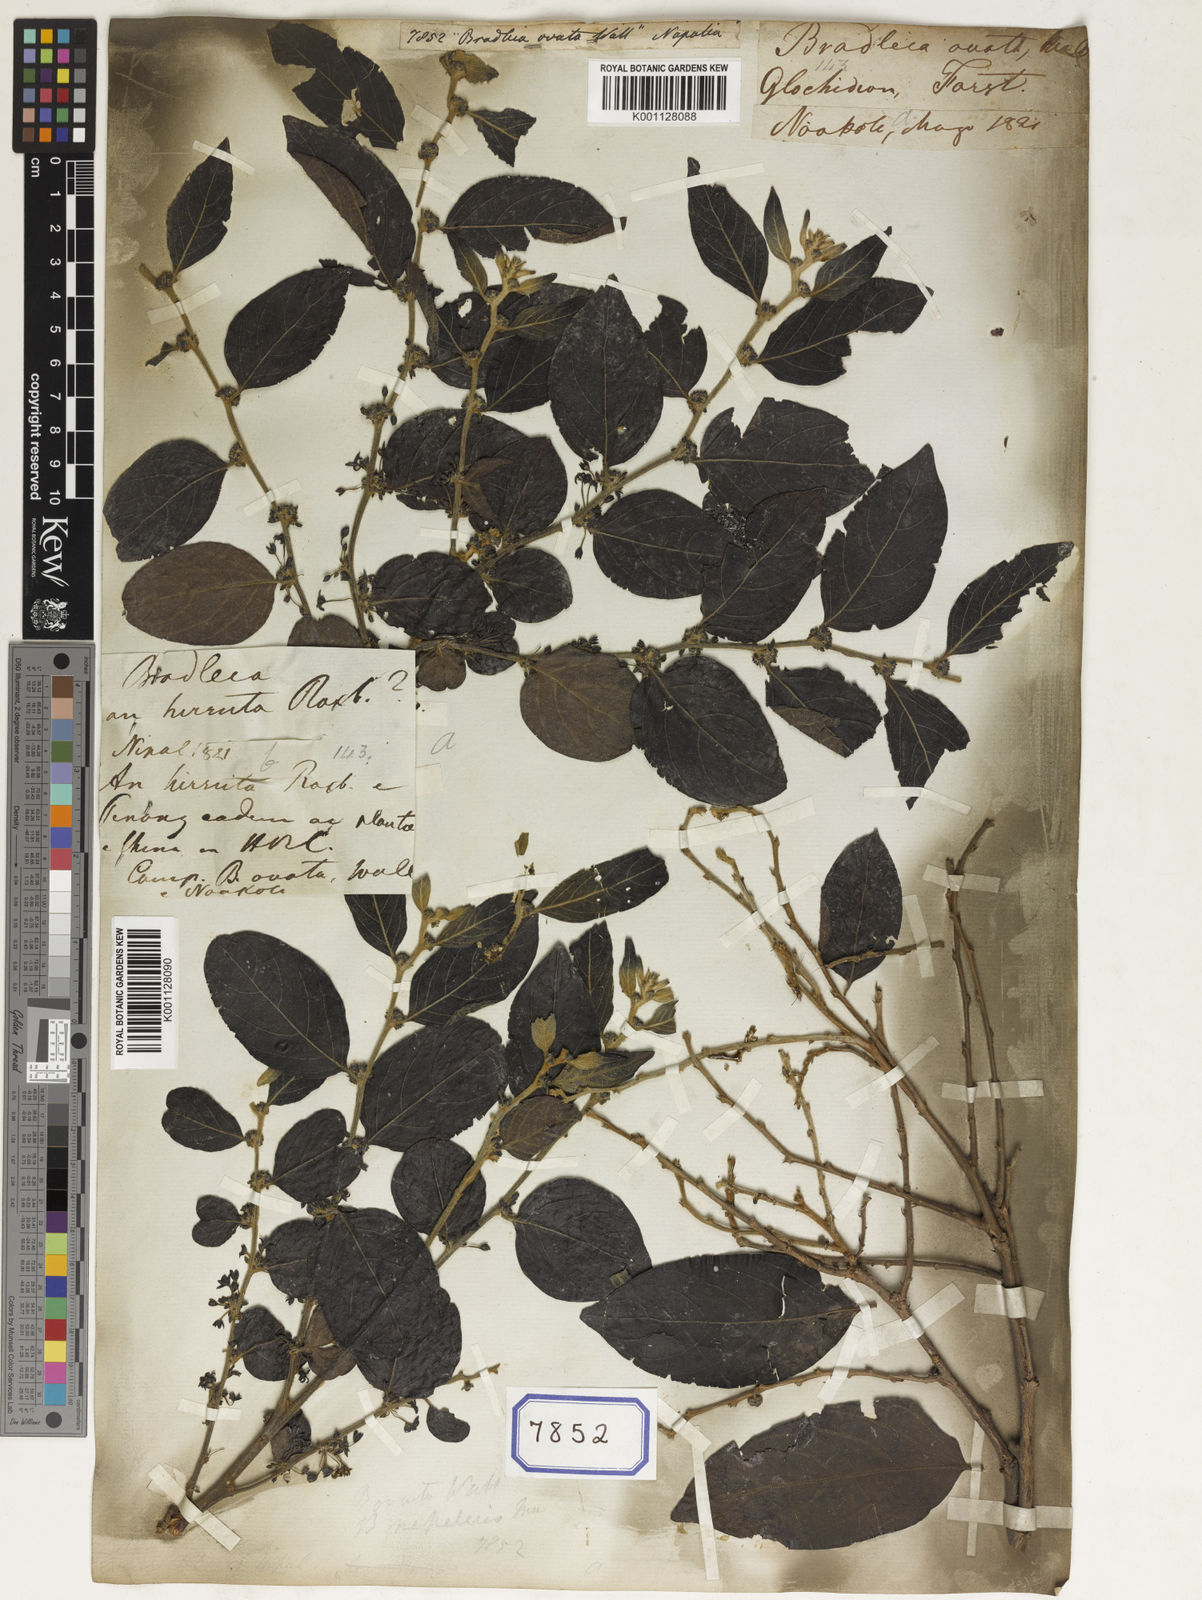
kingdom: Plantae
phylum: Tracheophyta
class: Magnoliopsida
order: Malpighiales
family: Euphorbiaceae
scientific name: Euphorbiaceae
